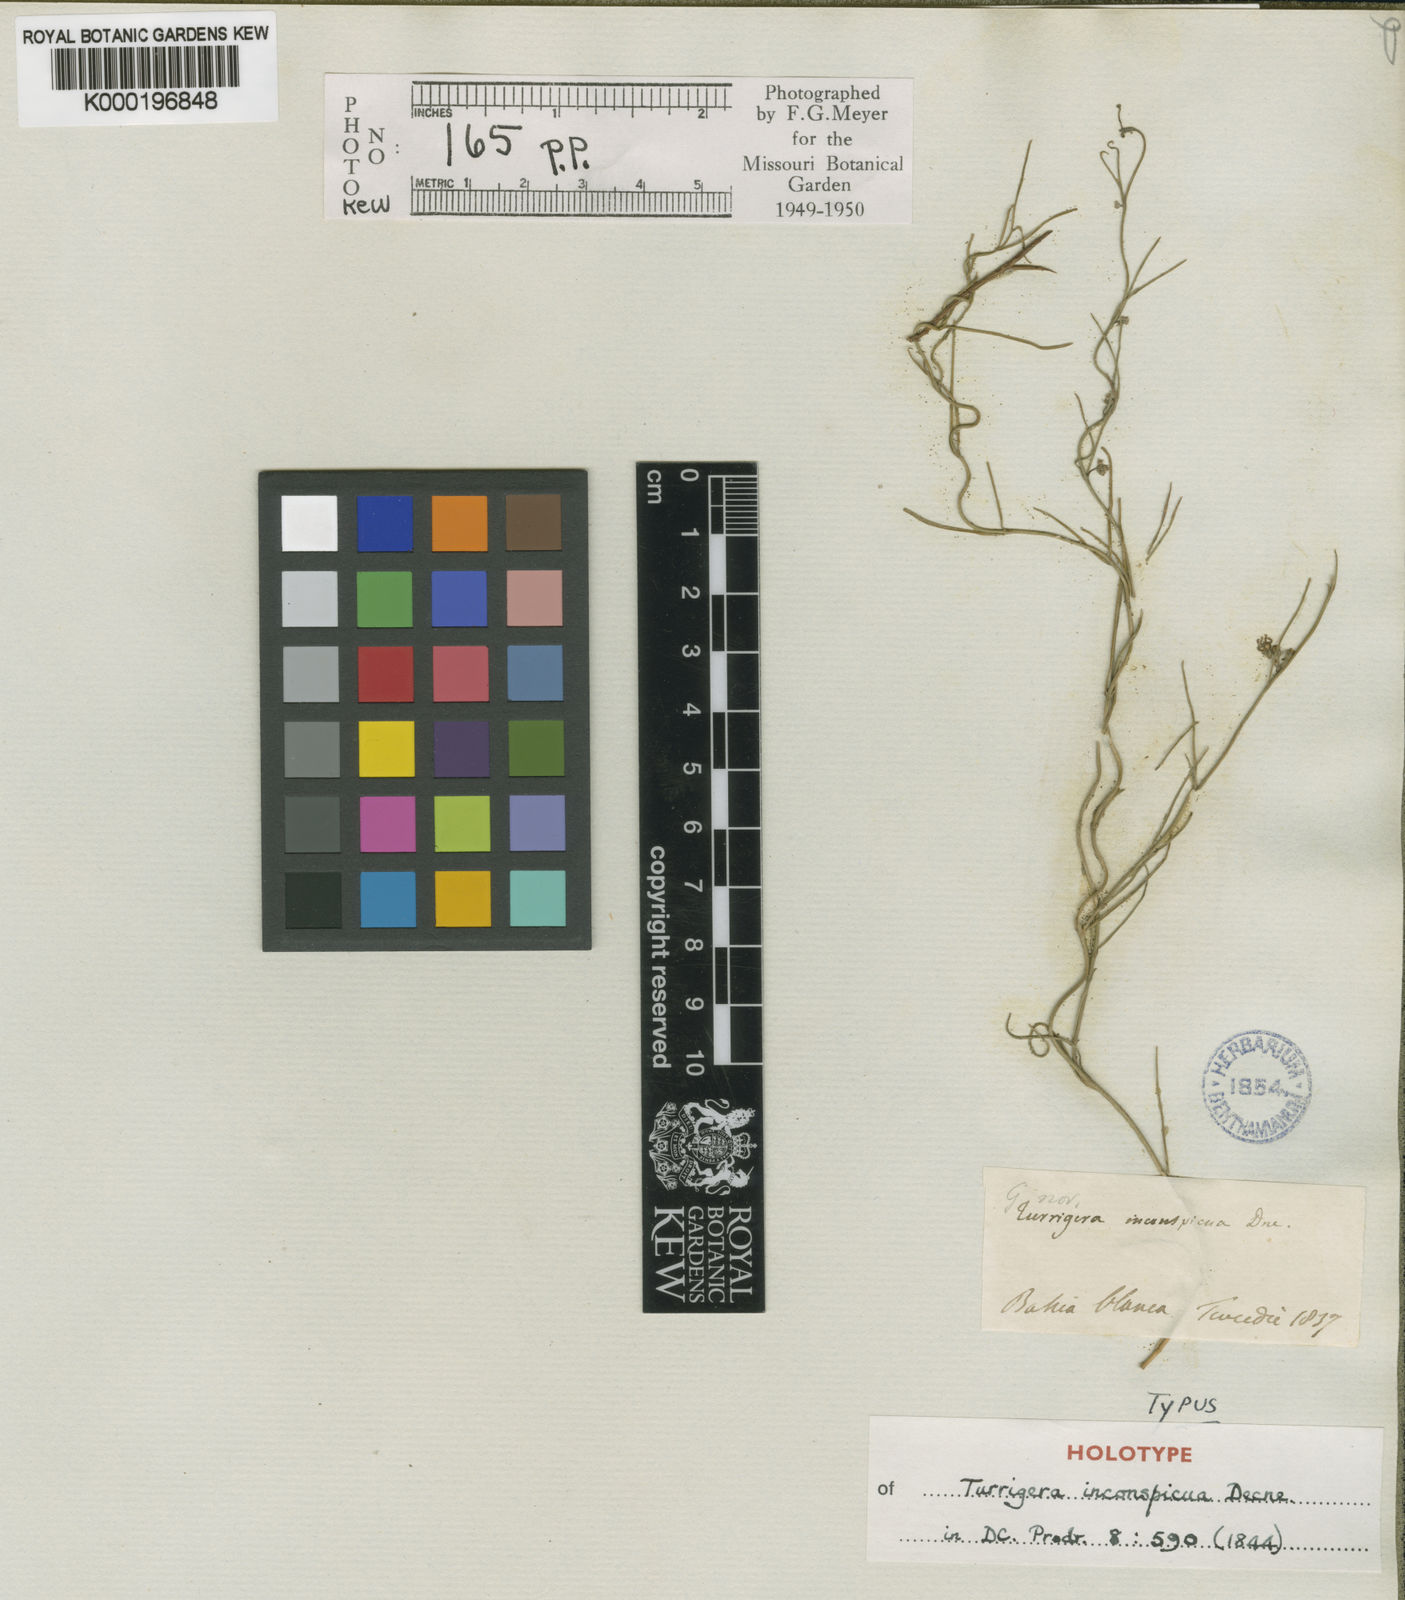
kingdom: Plantae
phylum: Tracheophyta
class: Magnoliopsida
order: Gentianales
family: Apocynaceae
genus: Tweedia
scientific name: Tweedia brunonis
